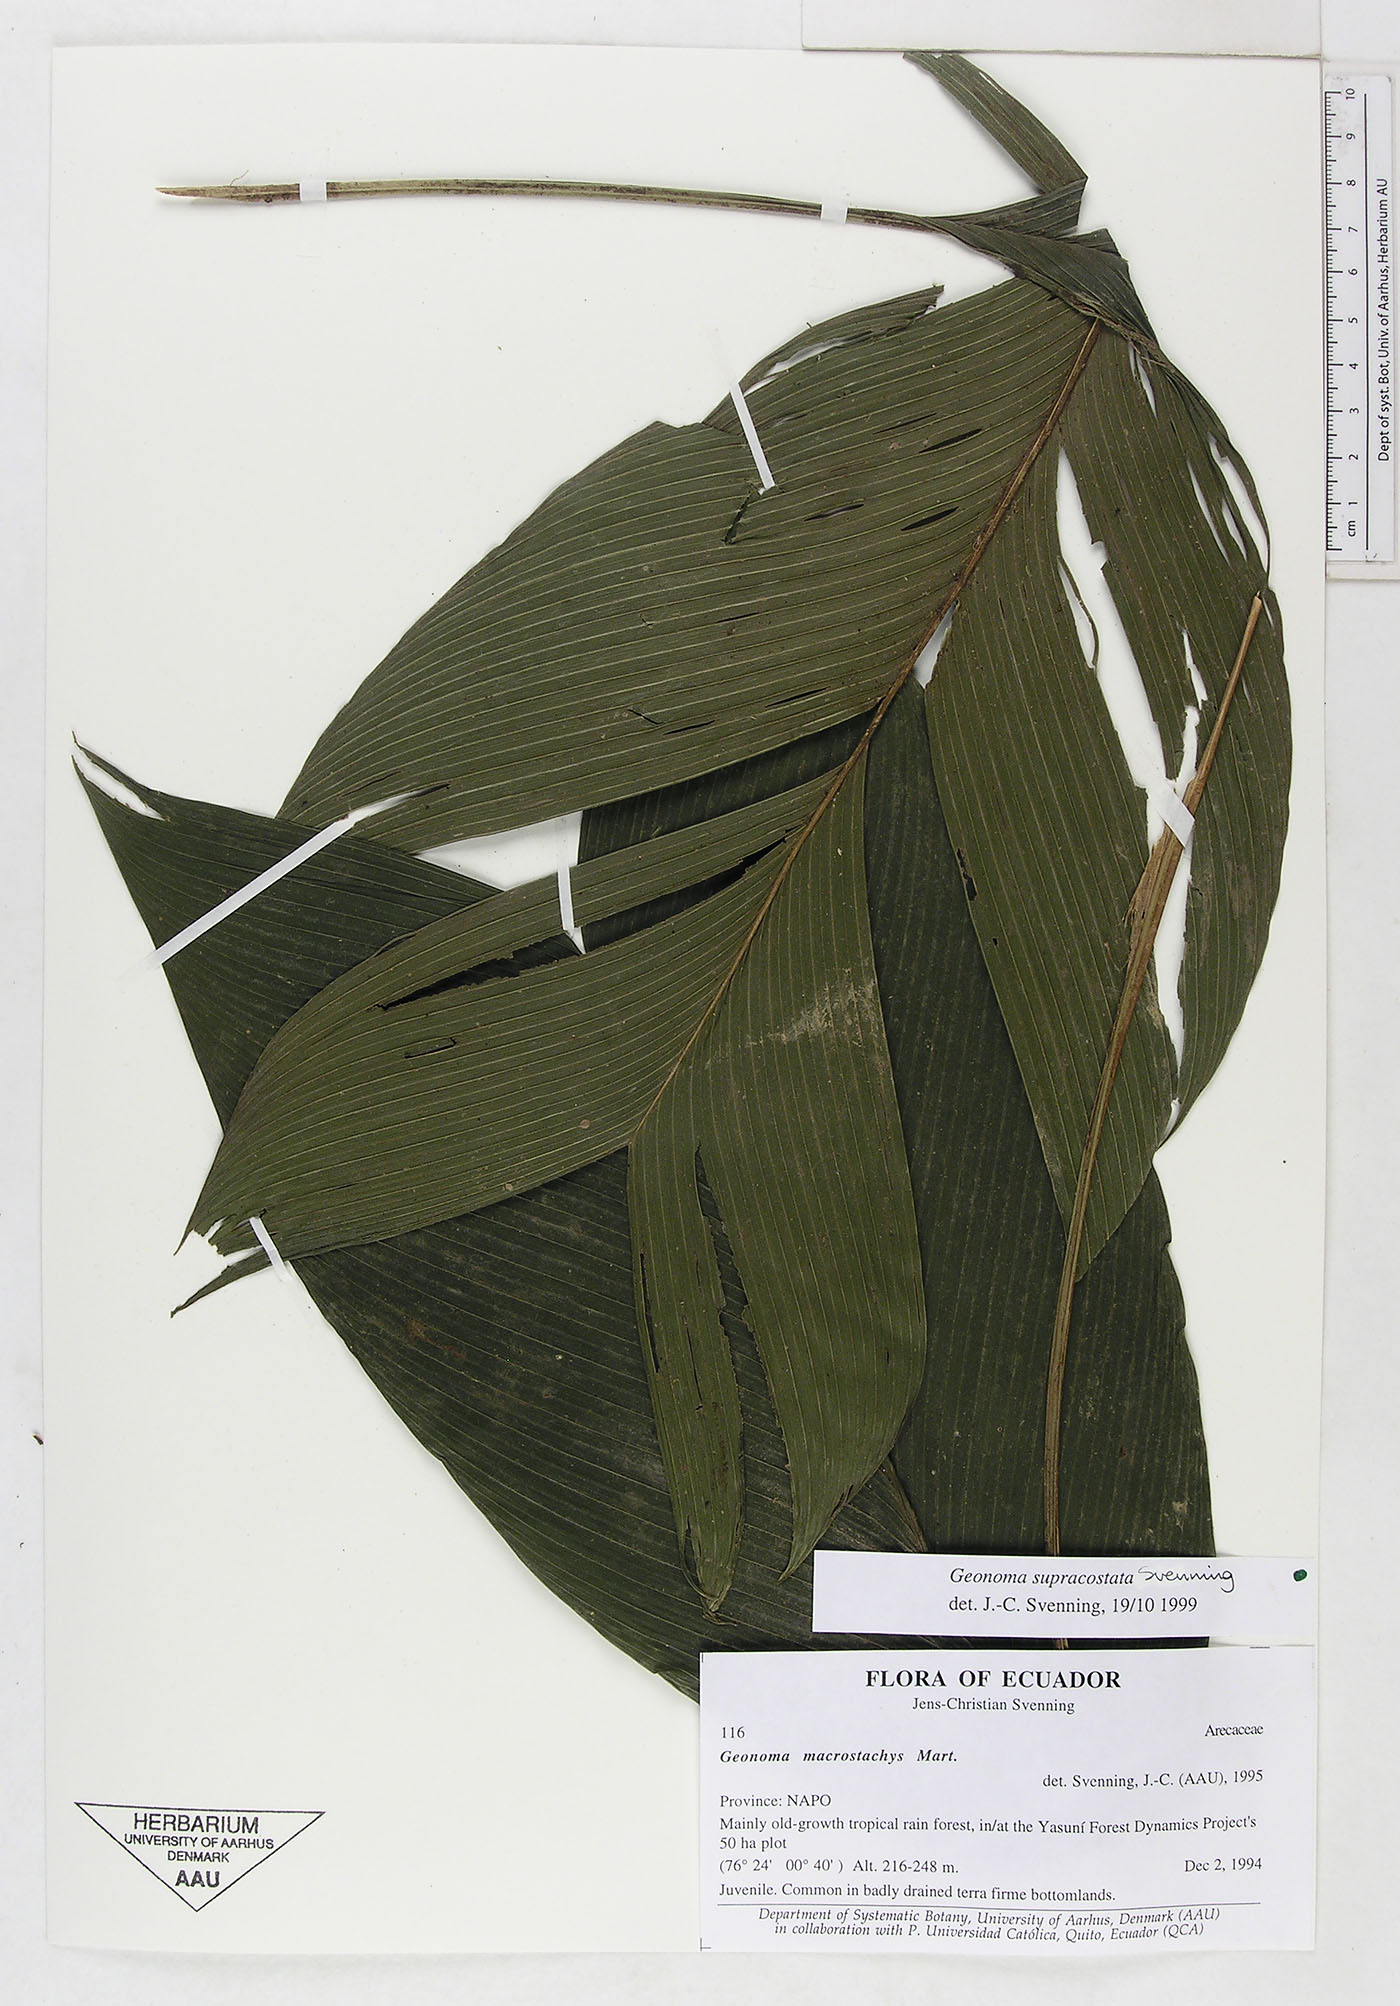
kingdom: Plantae
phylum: Tracheophyta
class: Liliopsida
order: Arecales
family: Arecaceae
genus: Geonoma
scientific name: Geonoma macrostachys
